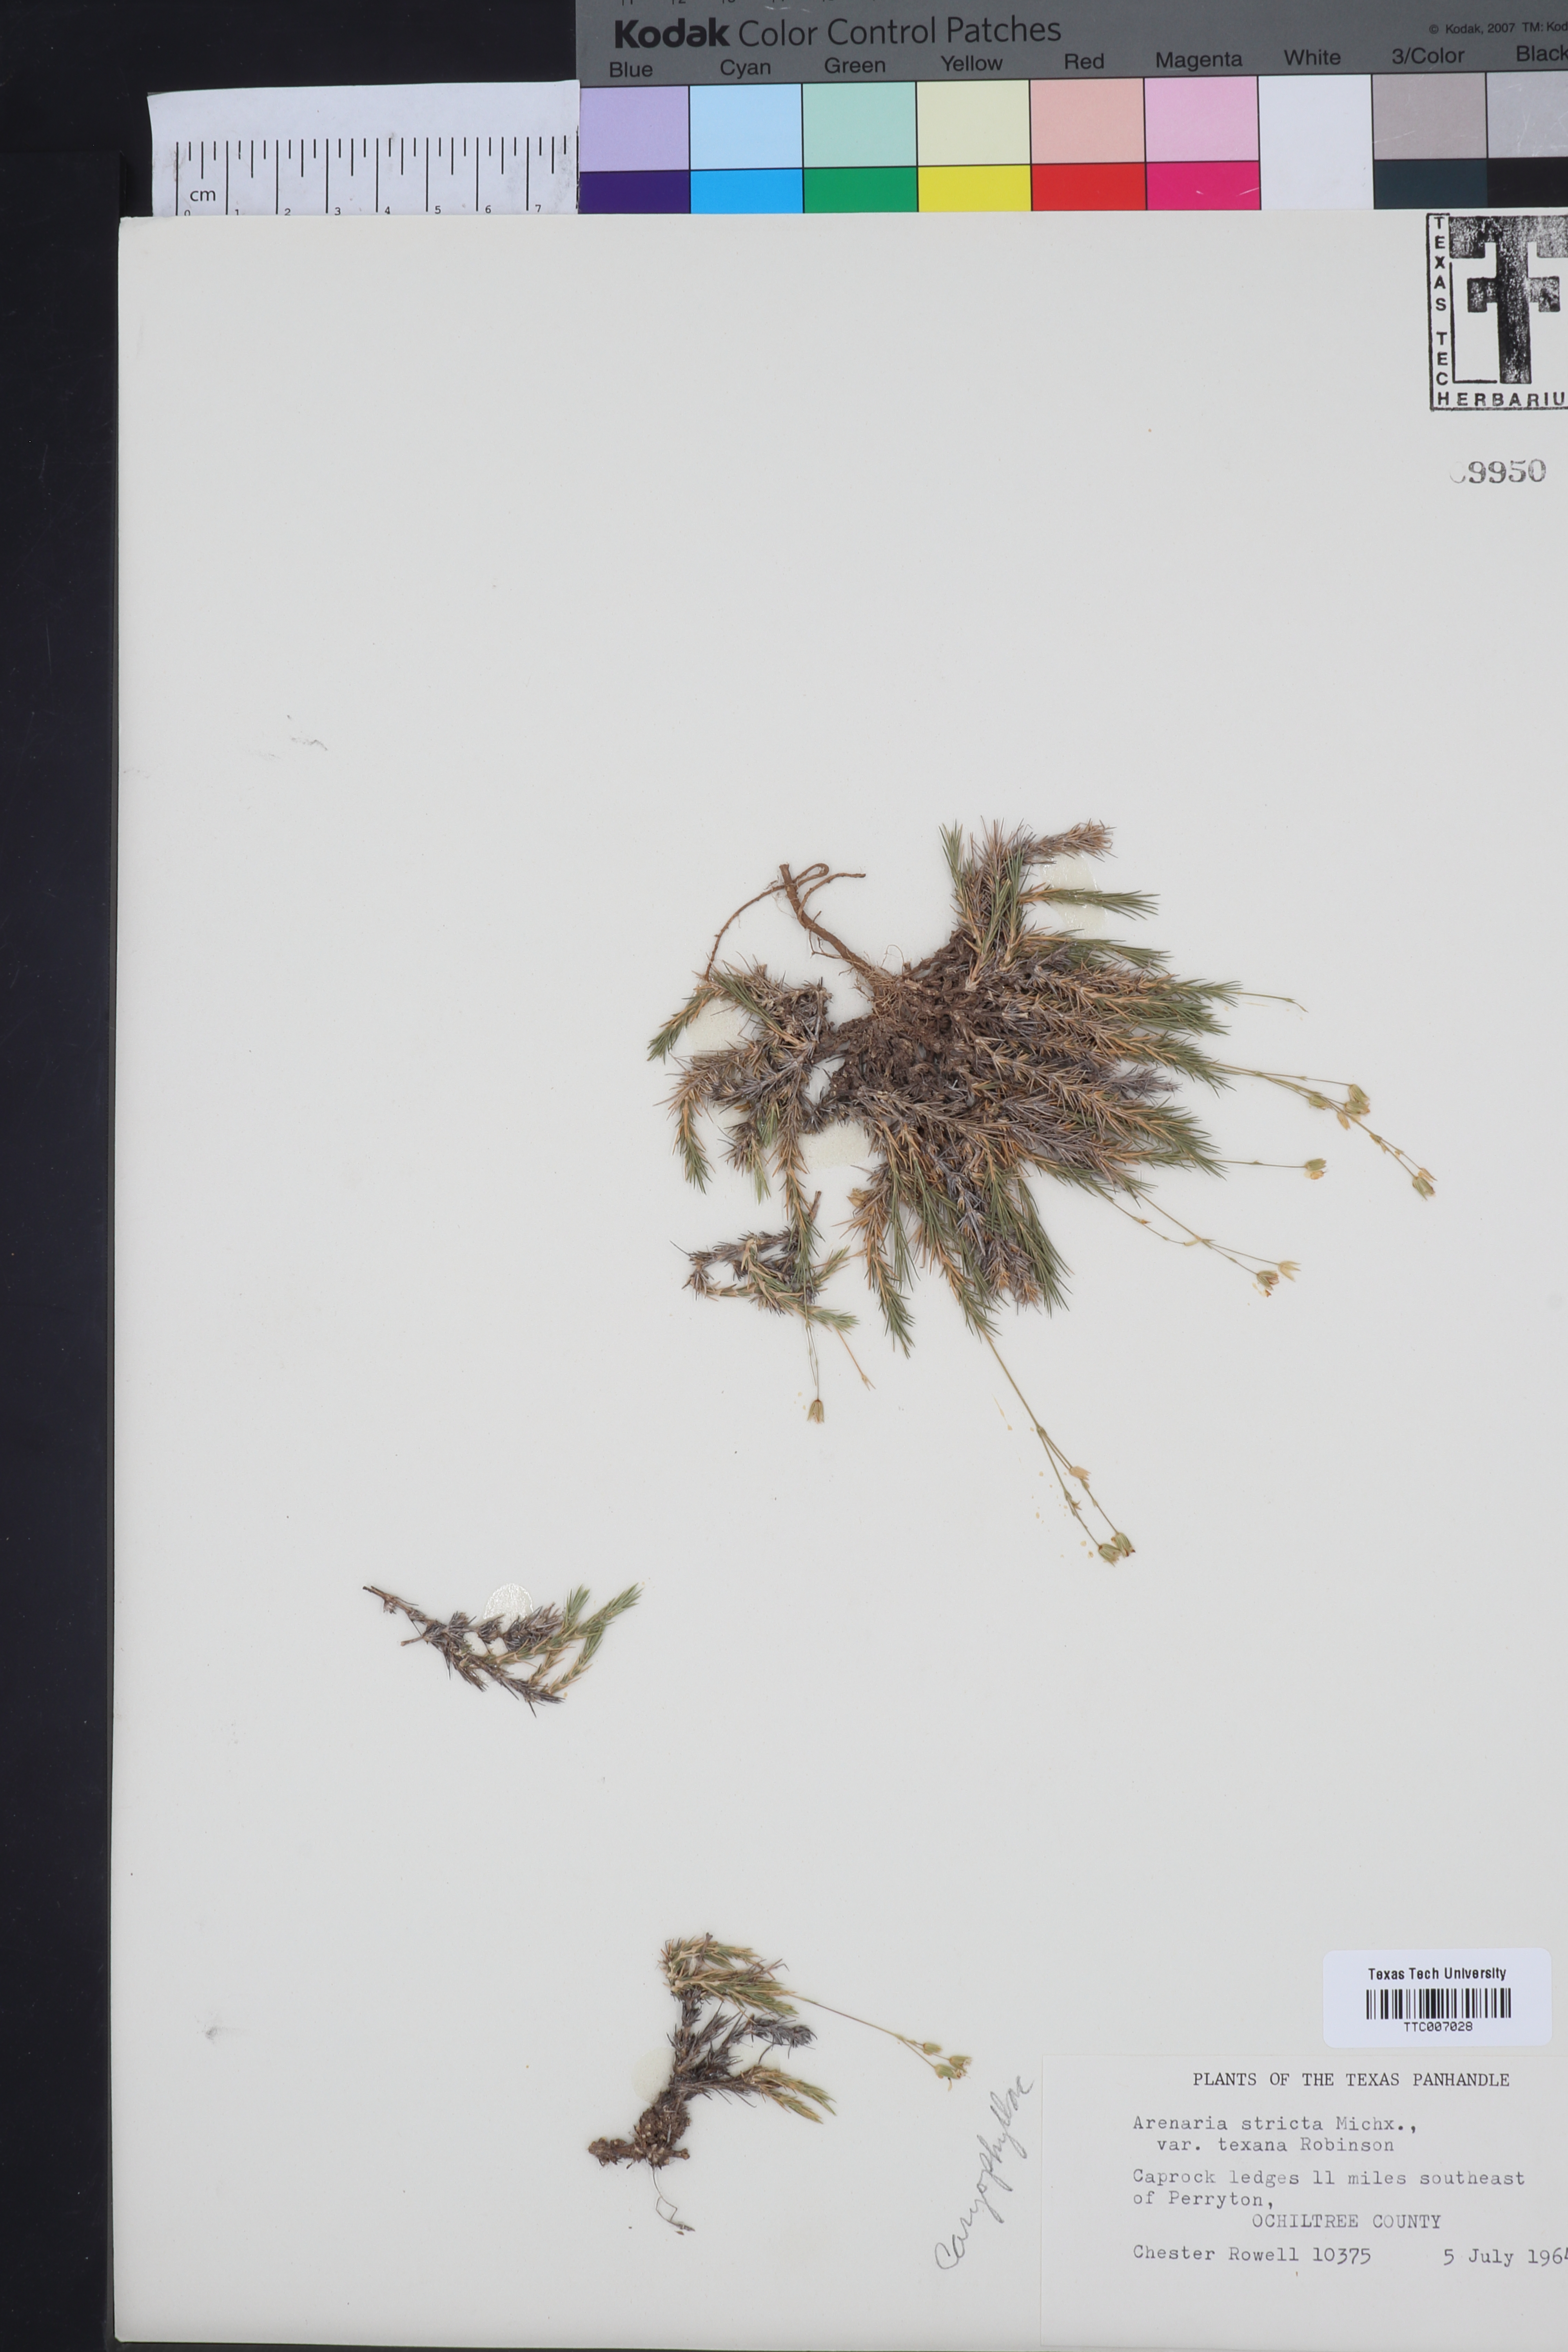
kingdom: Plantae
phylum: Tracheophyta
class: Magnoliopsida
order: Caryophyllales
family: Caryophyllaceae
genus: Sabulina
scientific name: Sabulina texana
